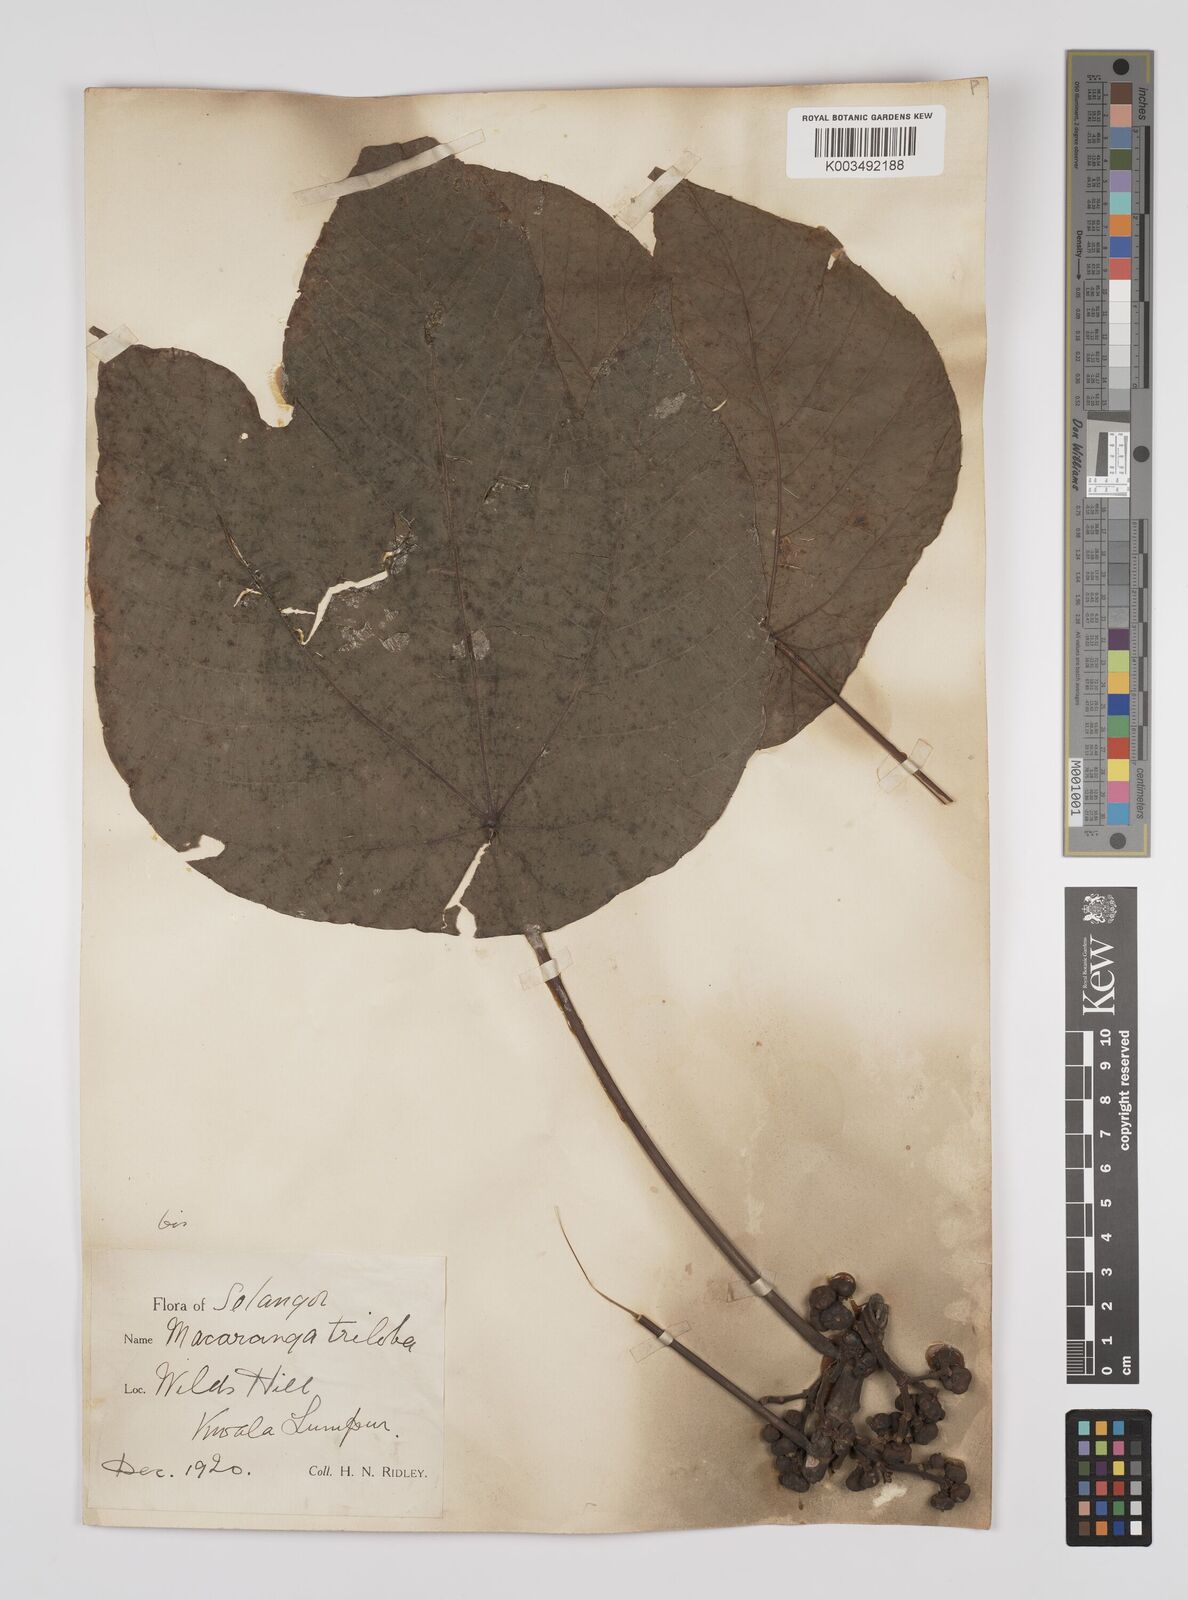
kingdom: Plantae
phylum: Tracheophyta
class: Magnoliopsida
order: Malpighiales
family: Euphorbiaceae
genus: Macaranga
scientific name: Macaranga triloba
